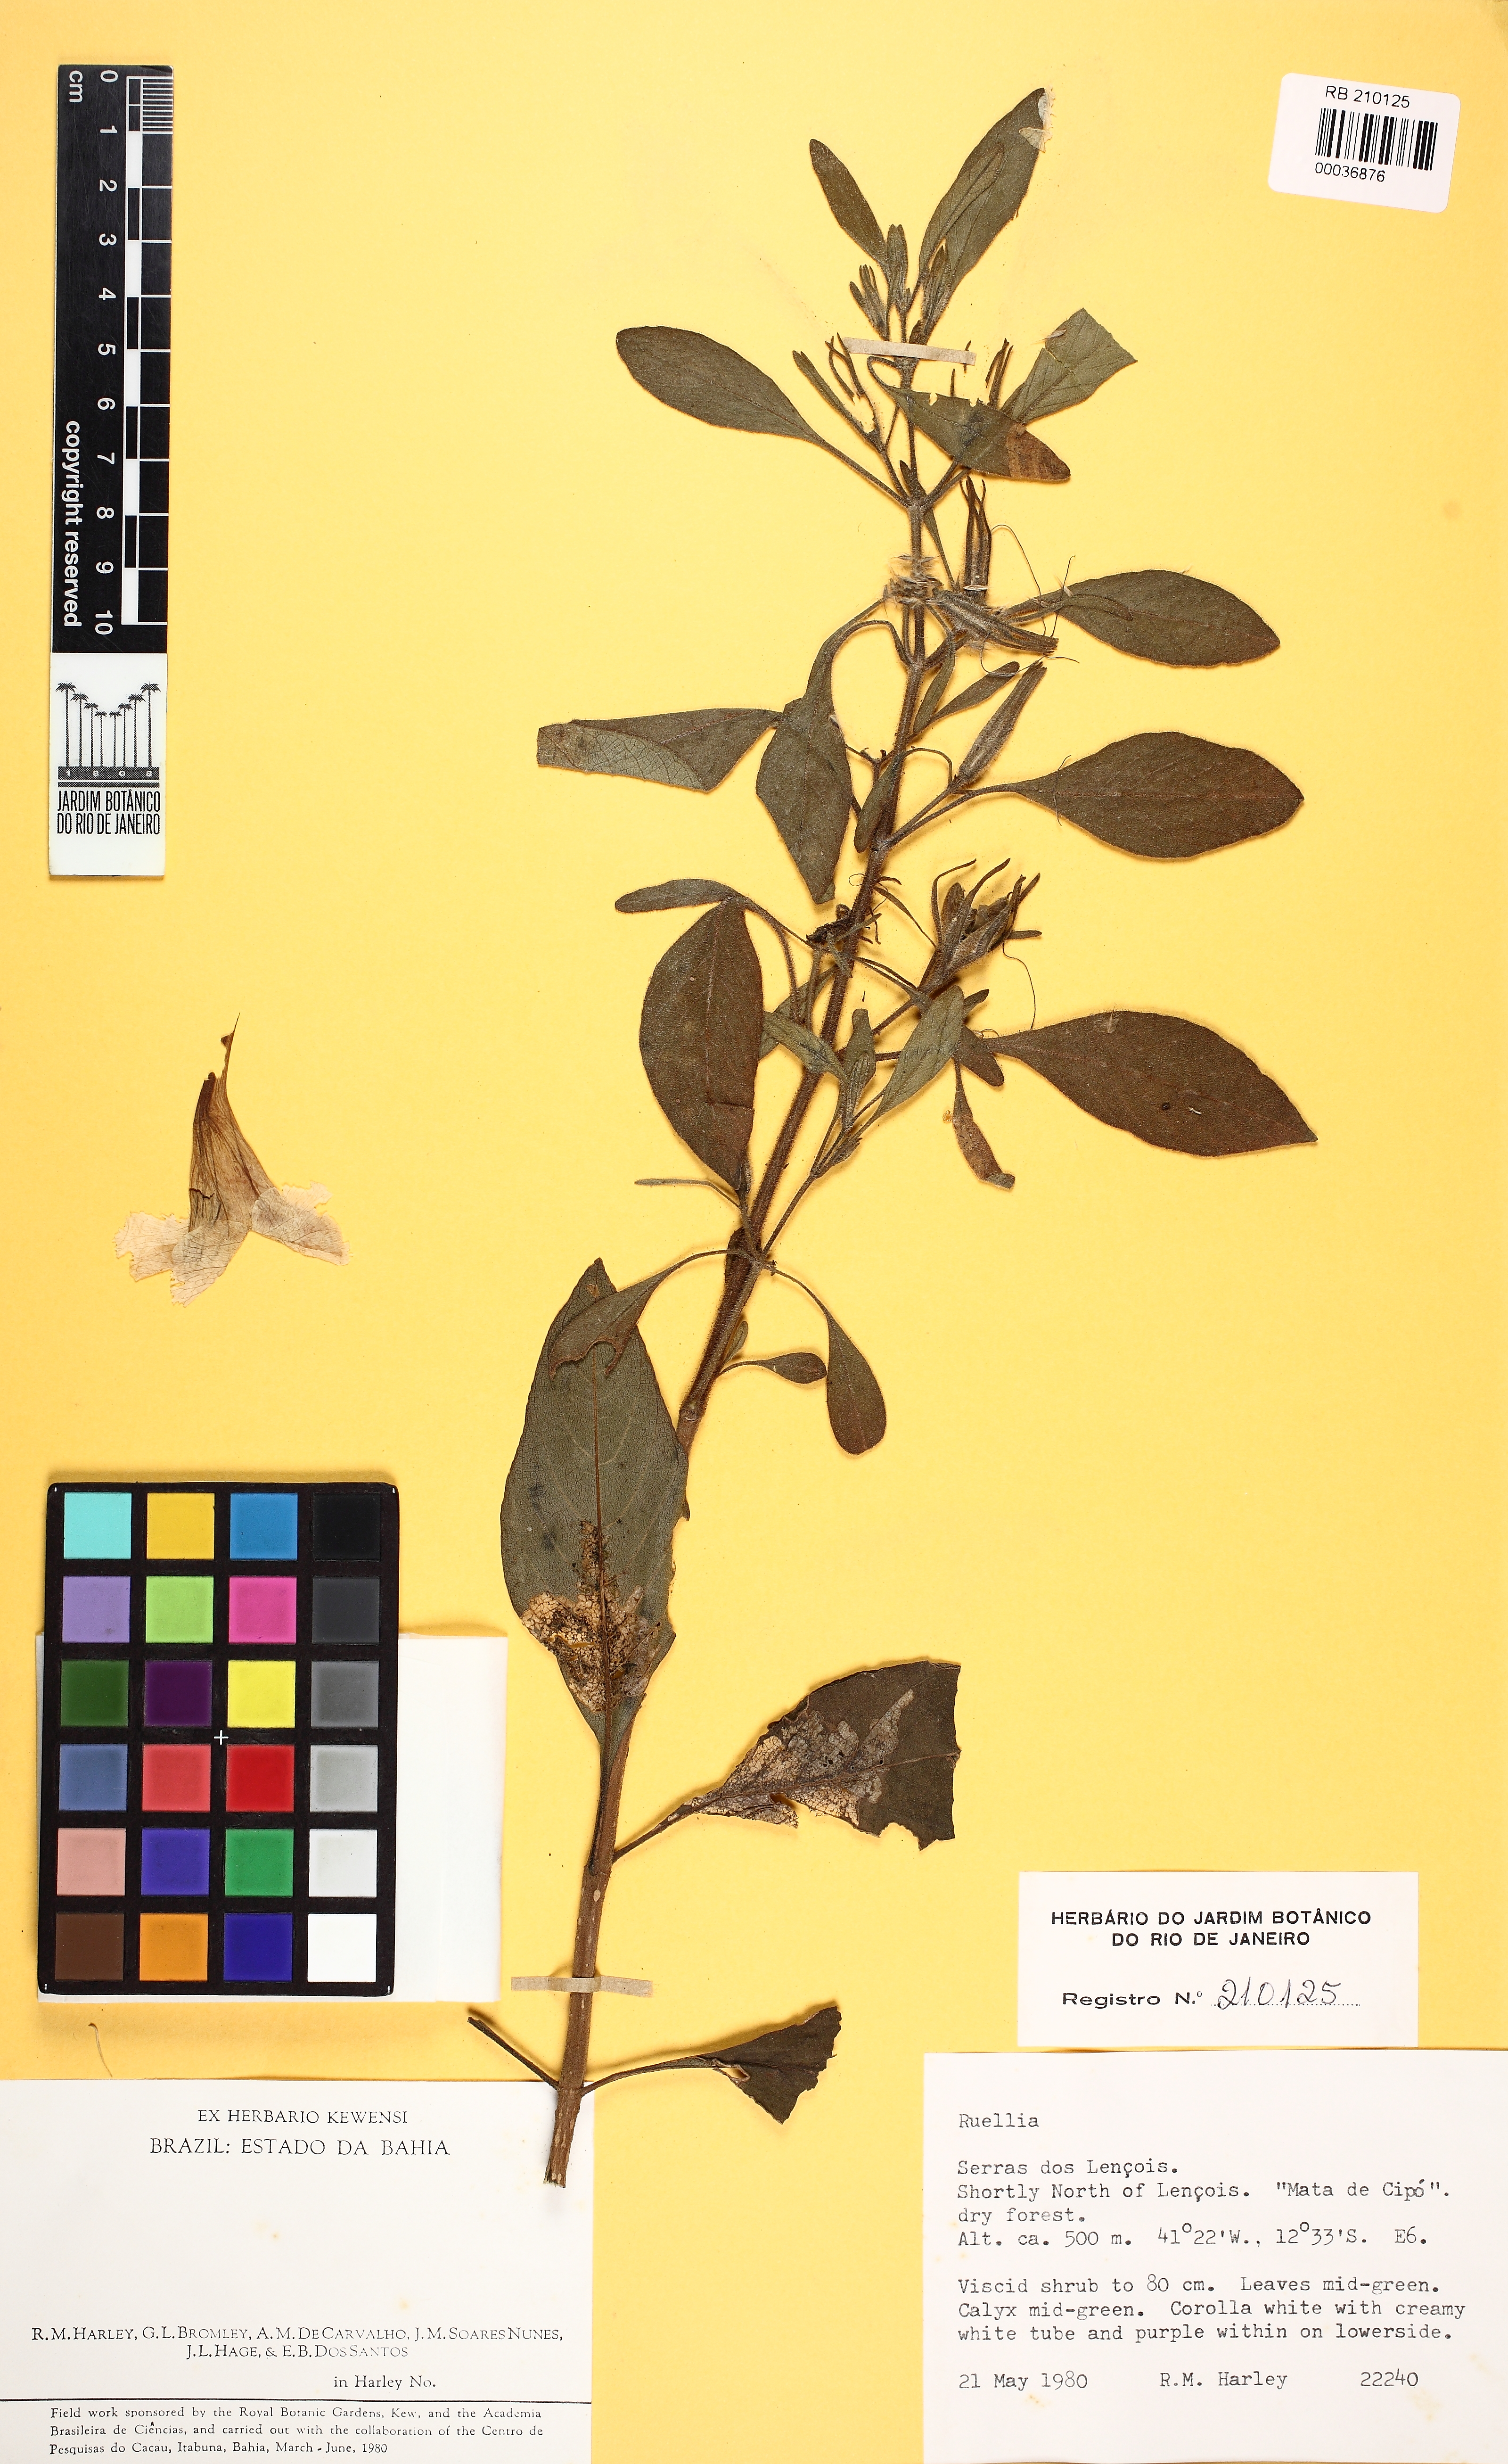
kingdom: Plantae
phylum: Tracheophyta
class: Magnoliopsida
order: Lamiales
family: Acanthaceae
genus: Ruellia
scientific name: Ruellia incomta
